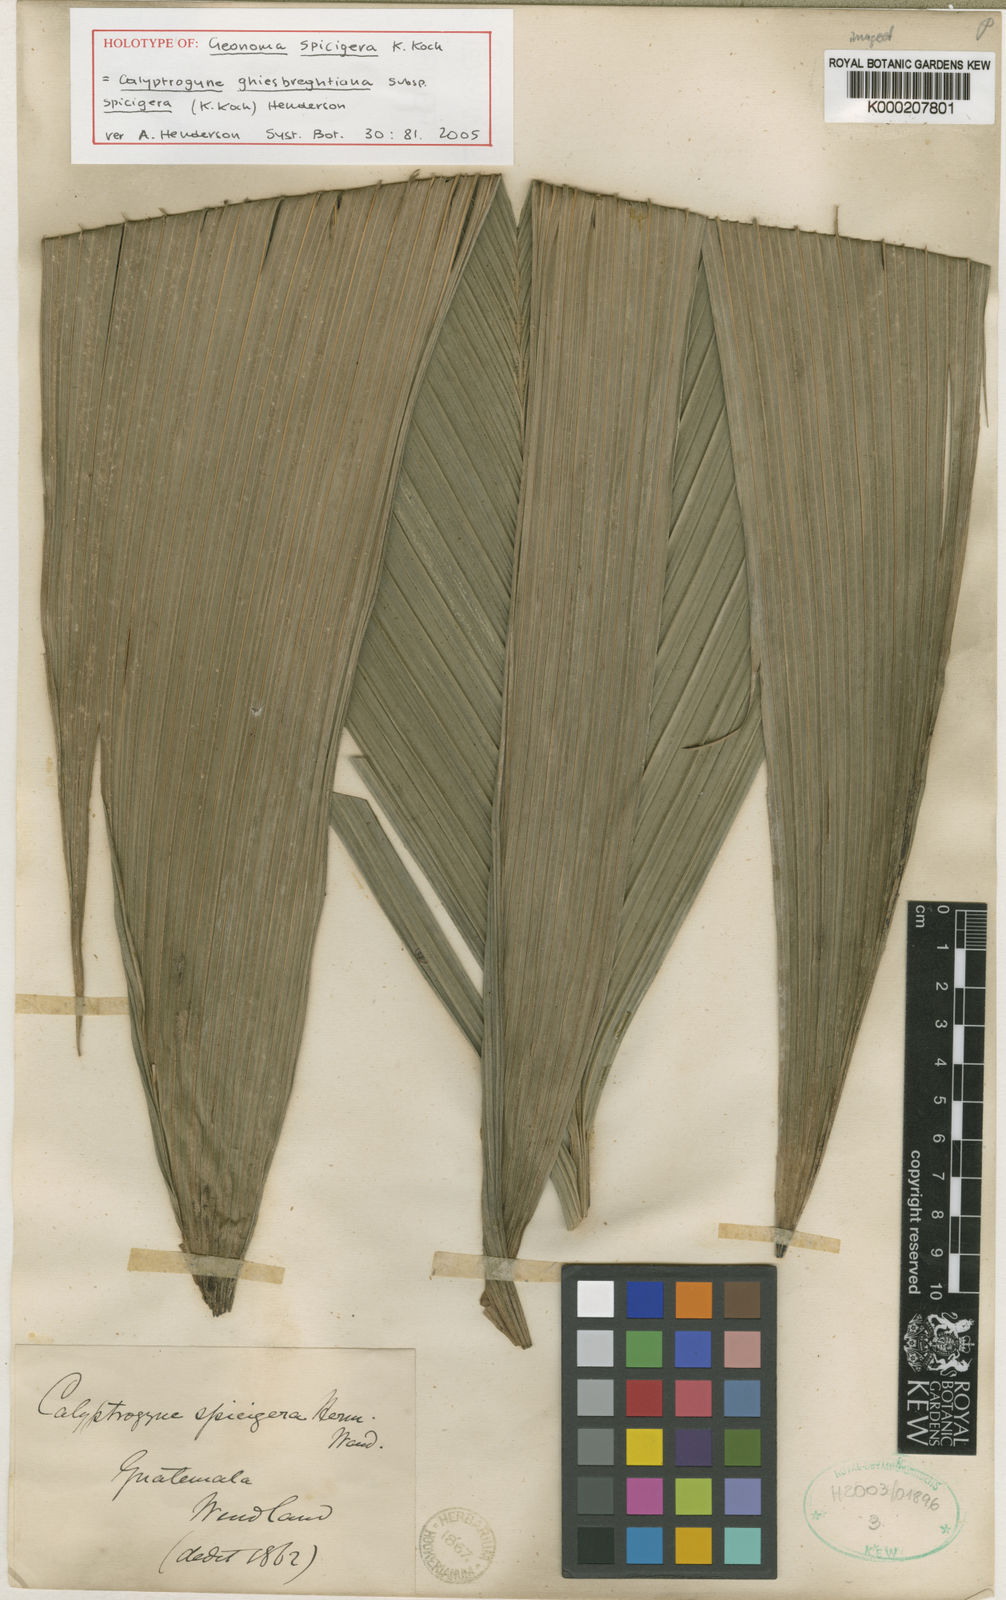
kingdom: Plantae
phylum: Tracheophyta
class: Liliopsida
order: Arecales
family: Arecaceae
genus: Calyptrogyne
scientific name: Calyptrogyne ghiesbreghtiana
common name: Coligallo
